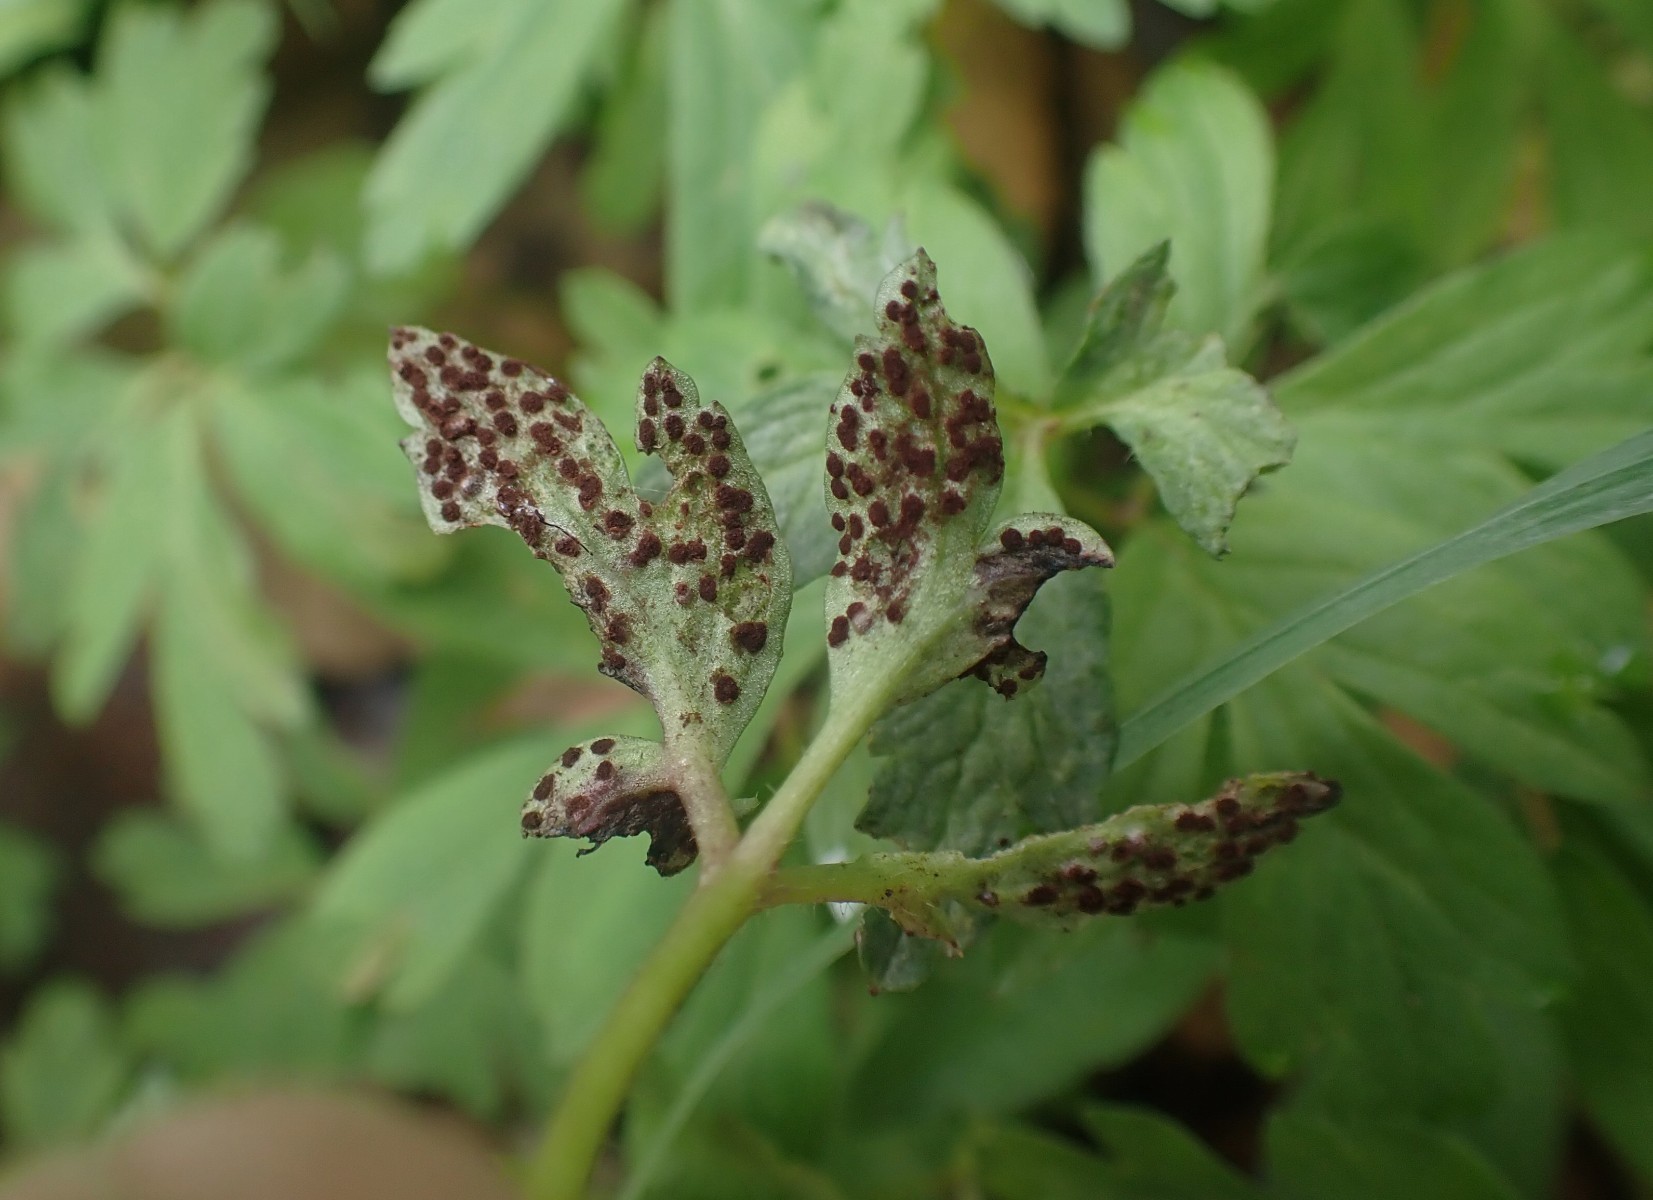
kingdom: Fungi
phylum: Basidiomycota
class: Pucciniomycetes
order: Pucciniales
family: Tranzscheliaceae
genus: Tranzschelia
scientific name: Tranzschelia anemones
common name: anemone-knæksporerust
